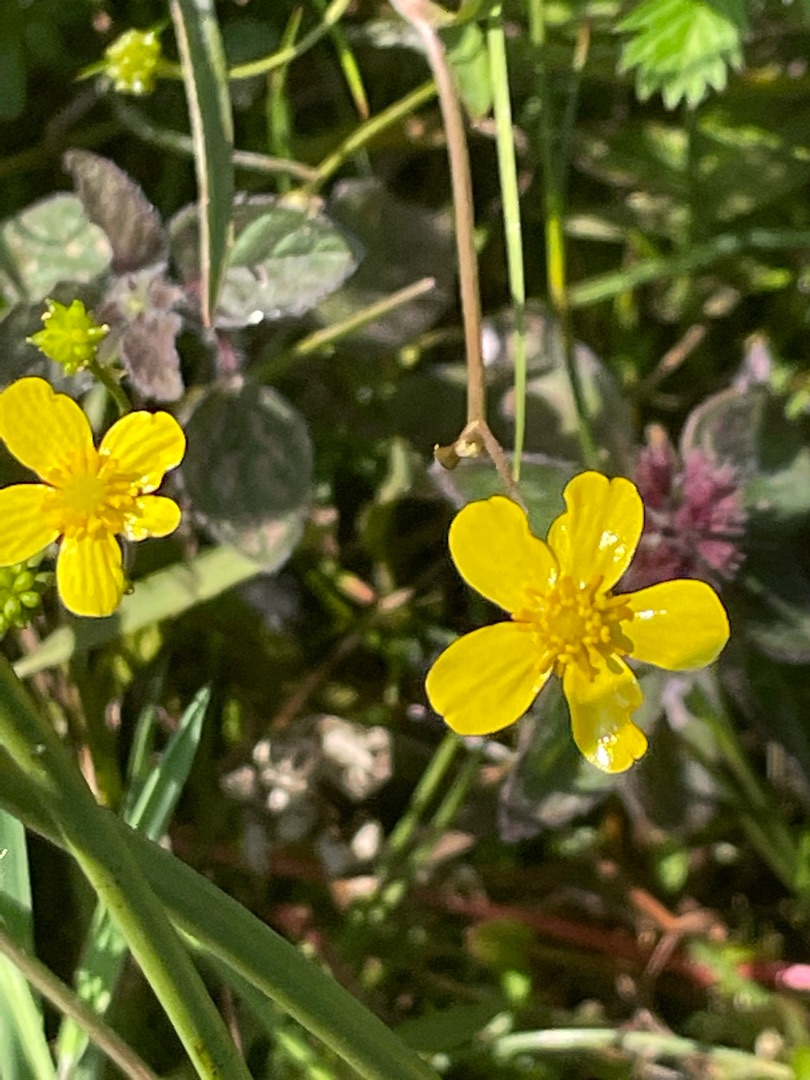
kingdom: Plantae
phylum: Tracheophyta
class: Magnoliopsida
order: Ranunculales
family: Ranunculaceae
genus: Ranunculus
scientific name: Ranunculus flammula
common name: Kær-ranunkel
